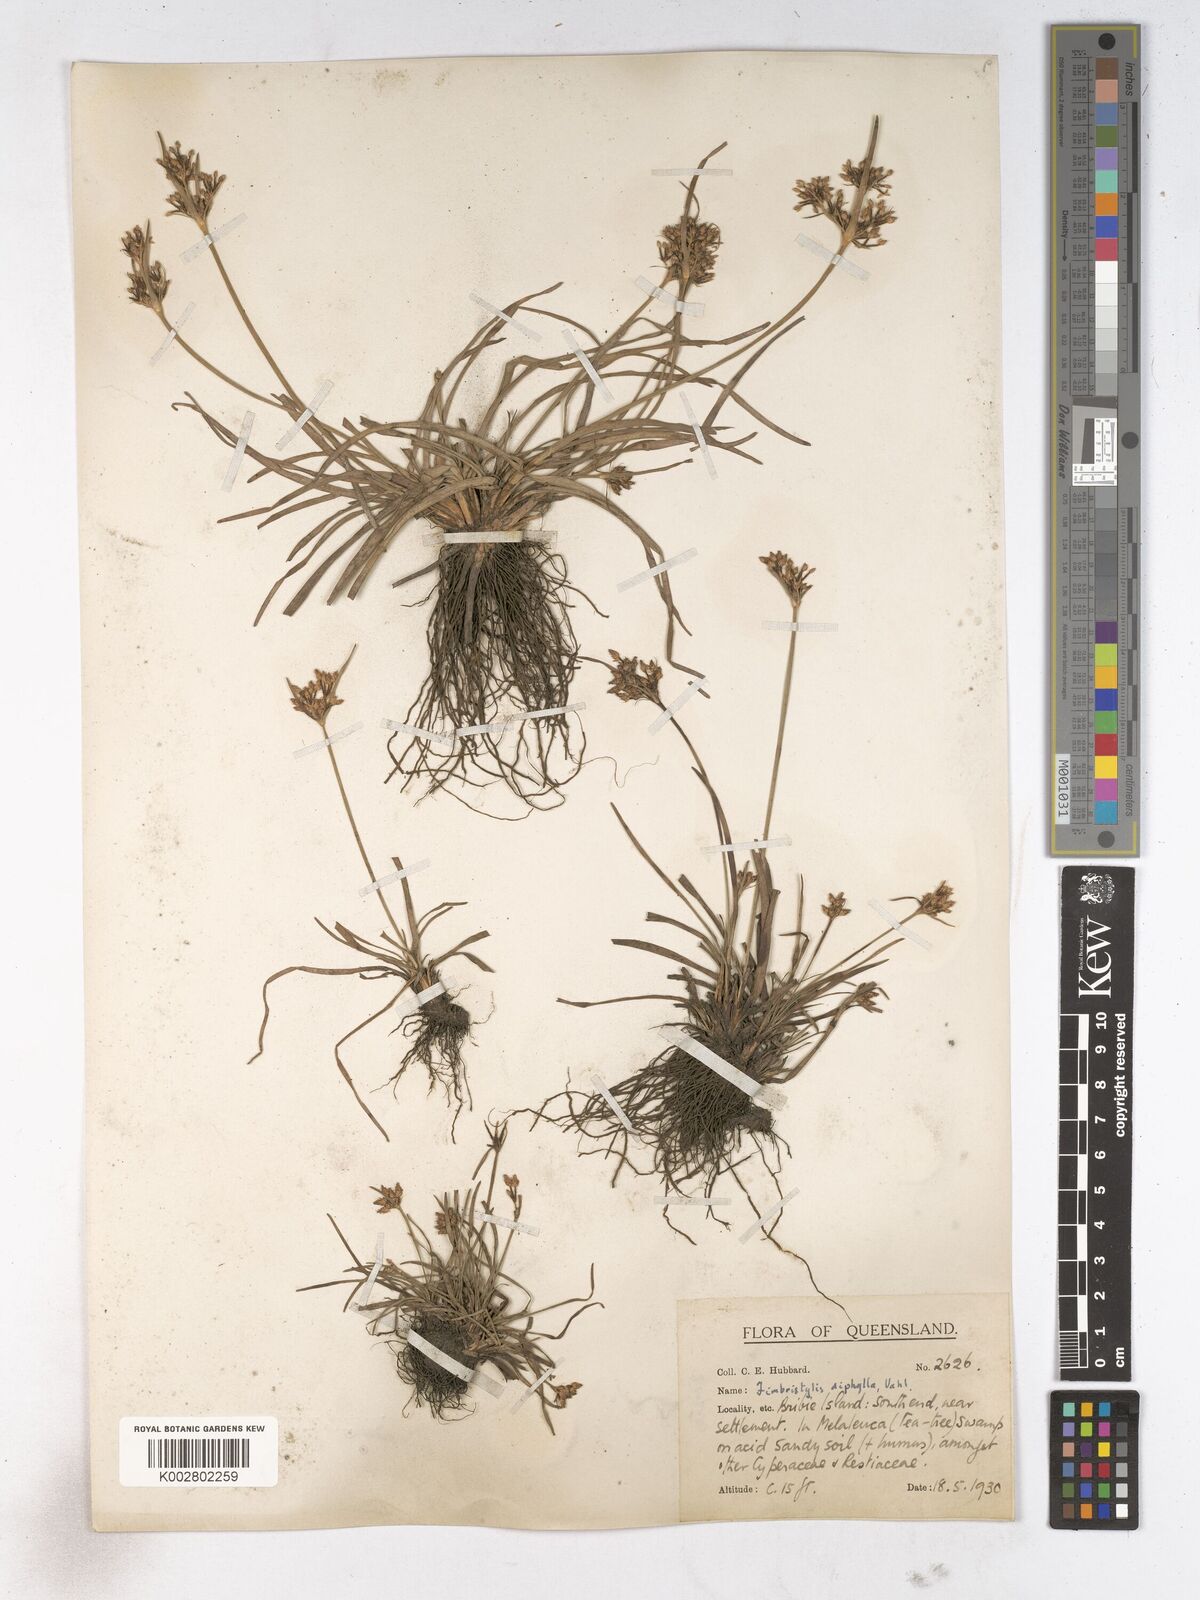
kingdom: Plantae
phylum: Tracheophyta
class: Liliopsida
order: Poales
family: Cyperaceae
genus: Fimbristylis
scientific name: Fimbristylis dichotoma
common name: Forked fimbry
